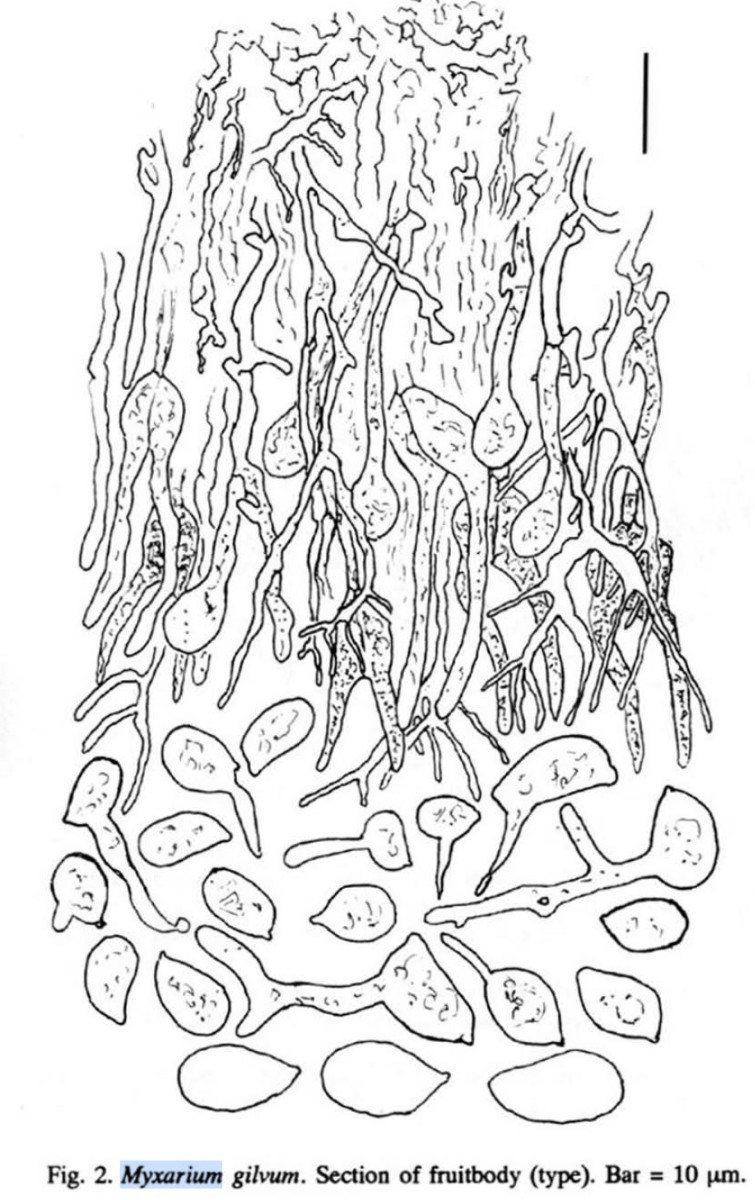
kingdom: Fungi
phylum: Basidiomycota
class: Agaricomycetes
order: Auriculariales
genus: Stypella
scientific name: Stypella crystallina
